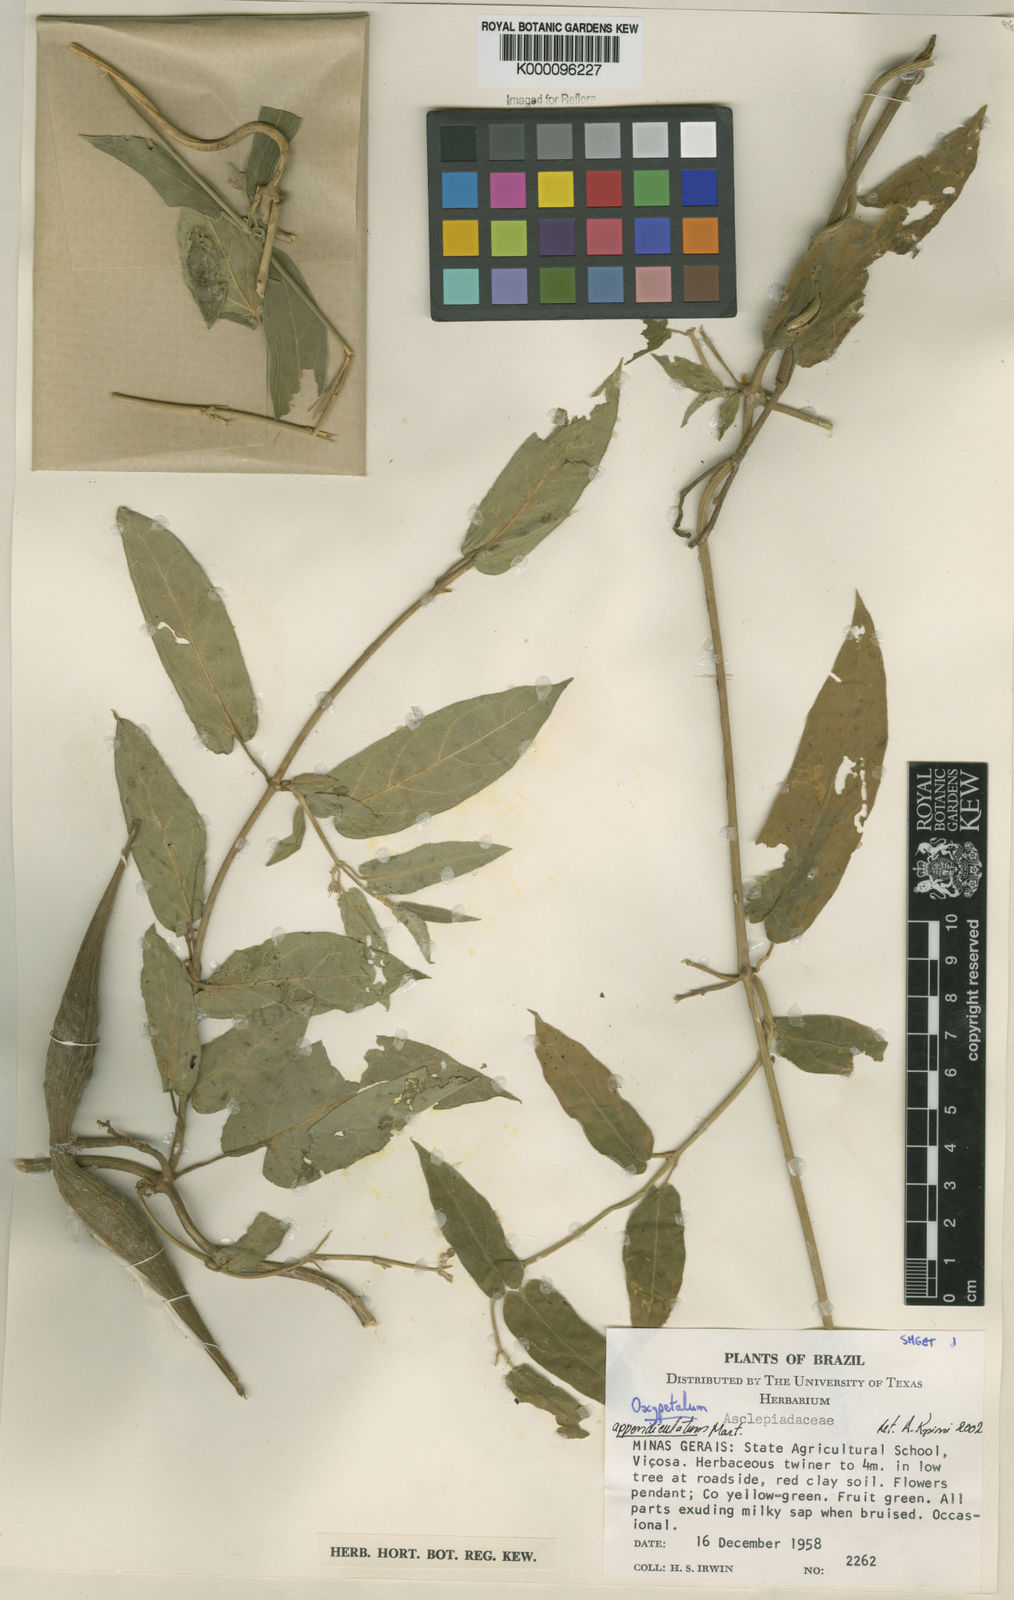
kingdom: Plantae
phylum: Tracheophyta
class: Magnoliopsida
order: Gentianales
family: Apocynaceae
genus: Oxypetalum
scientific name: Oxypetalum appendiculatum
